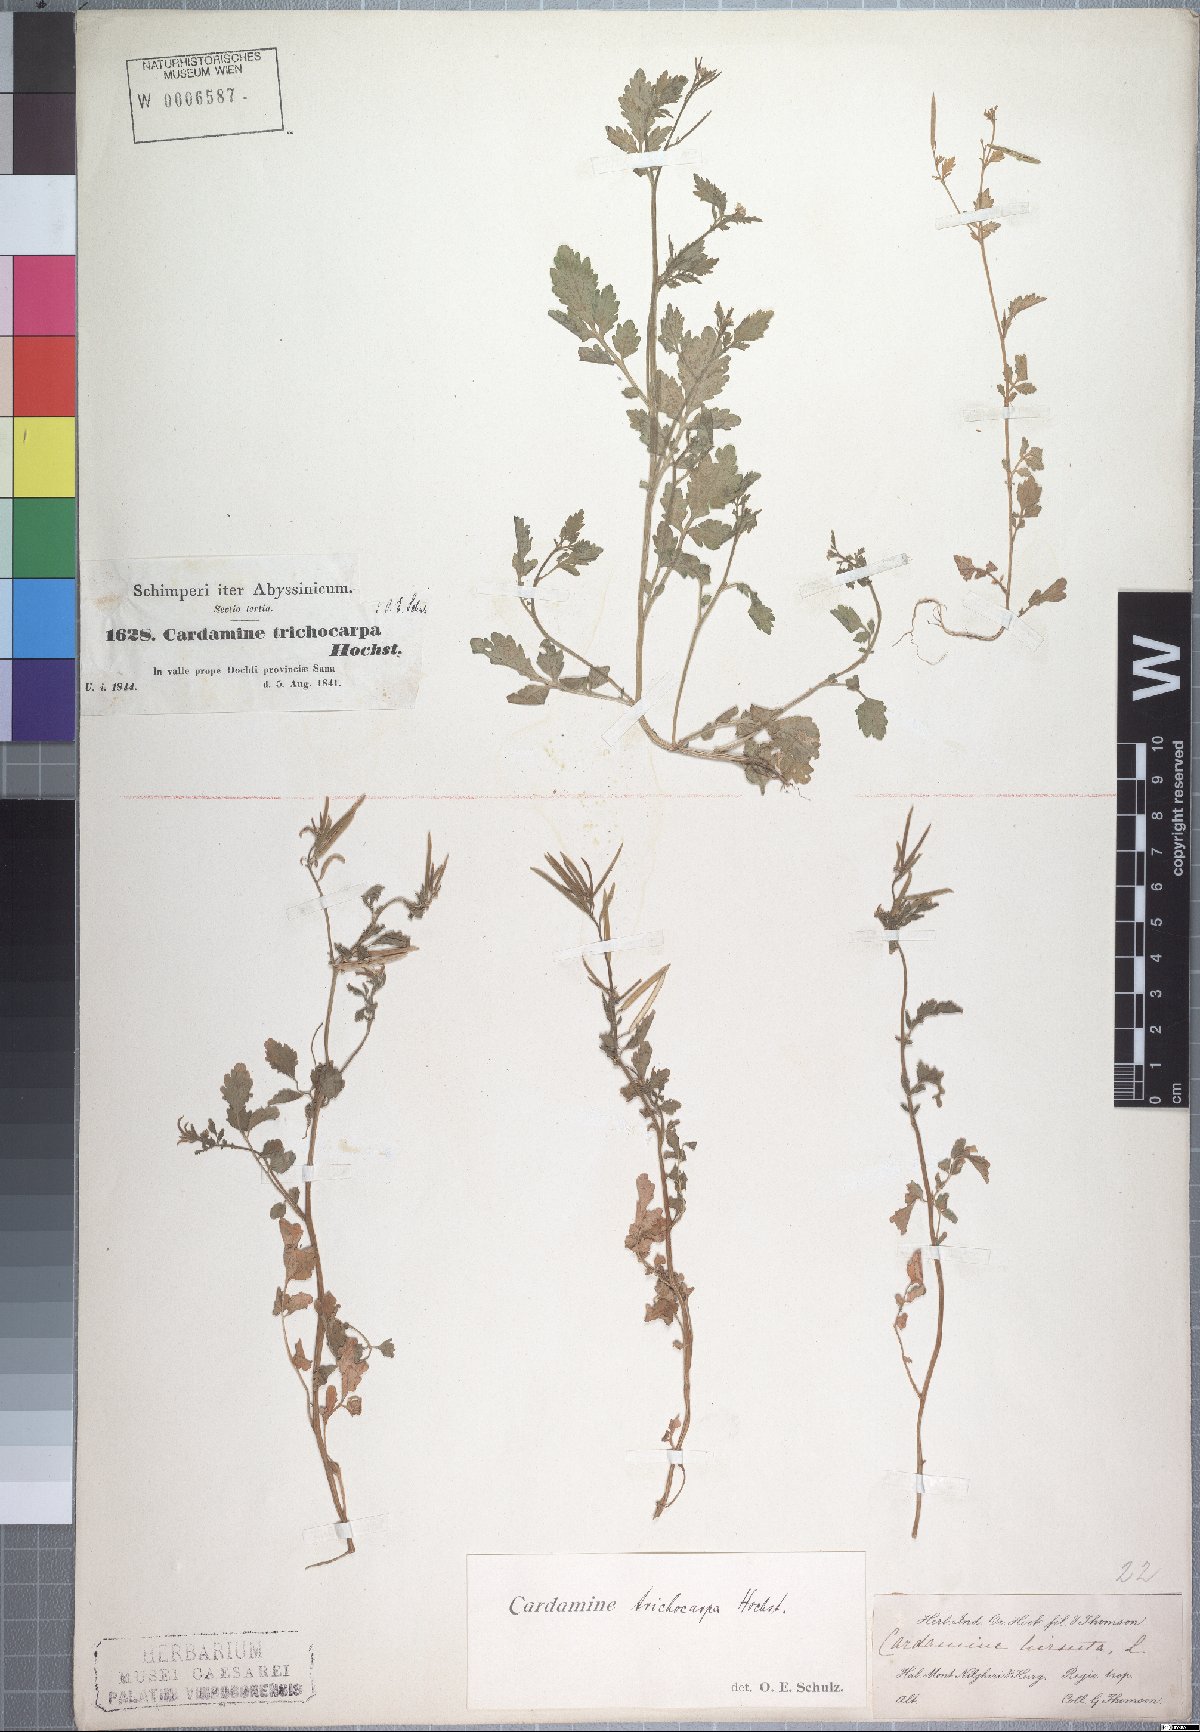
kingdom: Plantae
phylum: Tracheophyta
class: Magnoliopsida
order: Brassicales
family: Brassicaceae
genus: Cardamine
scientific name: Cardamine trichocarpa
